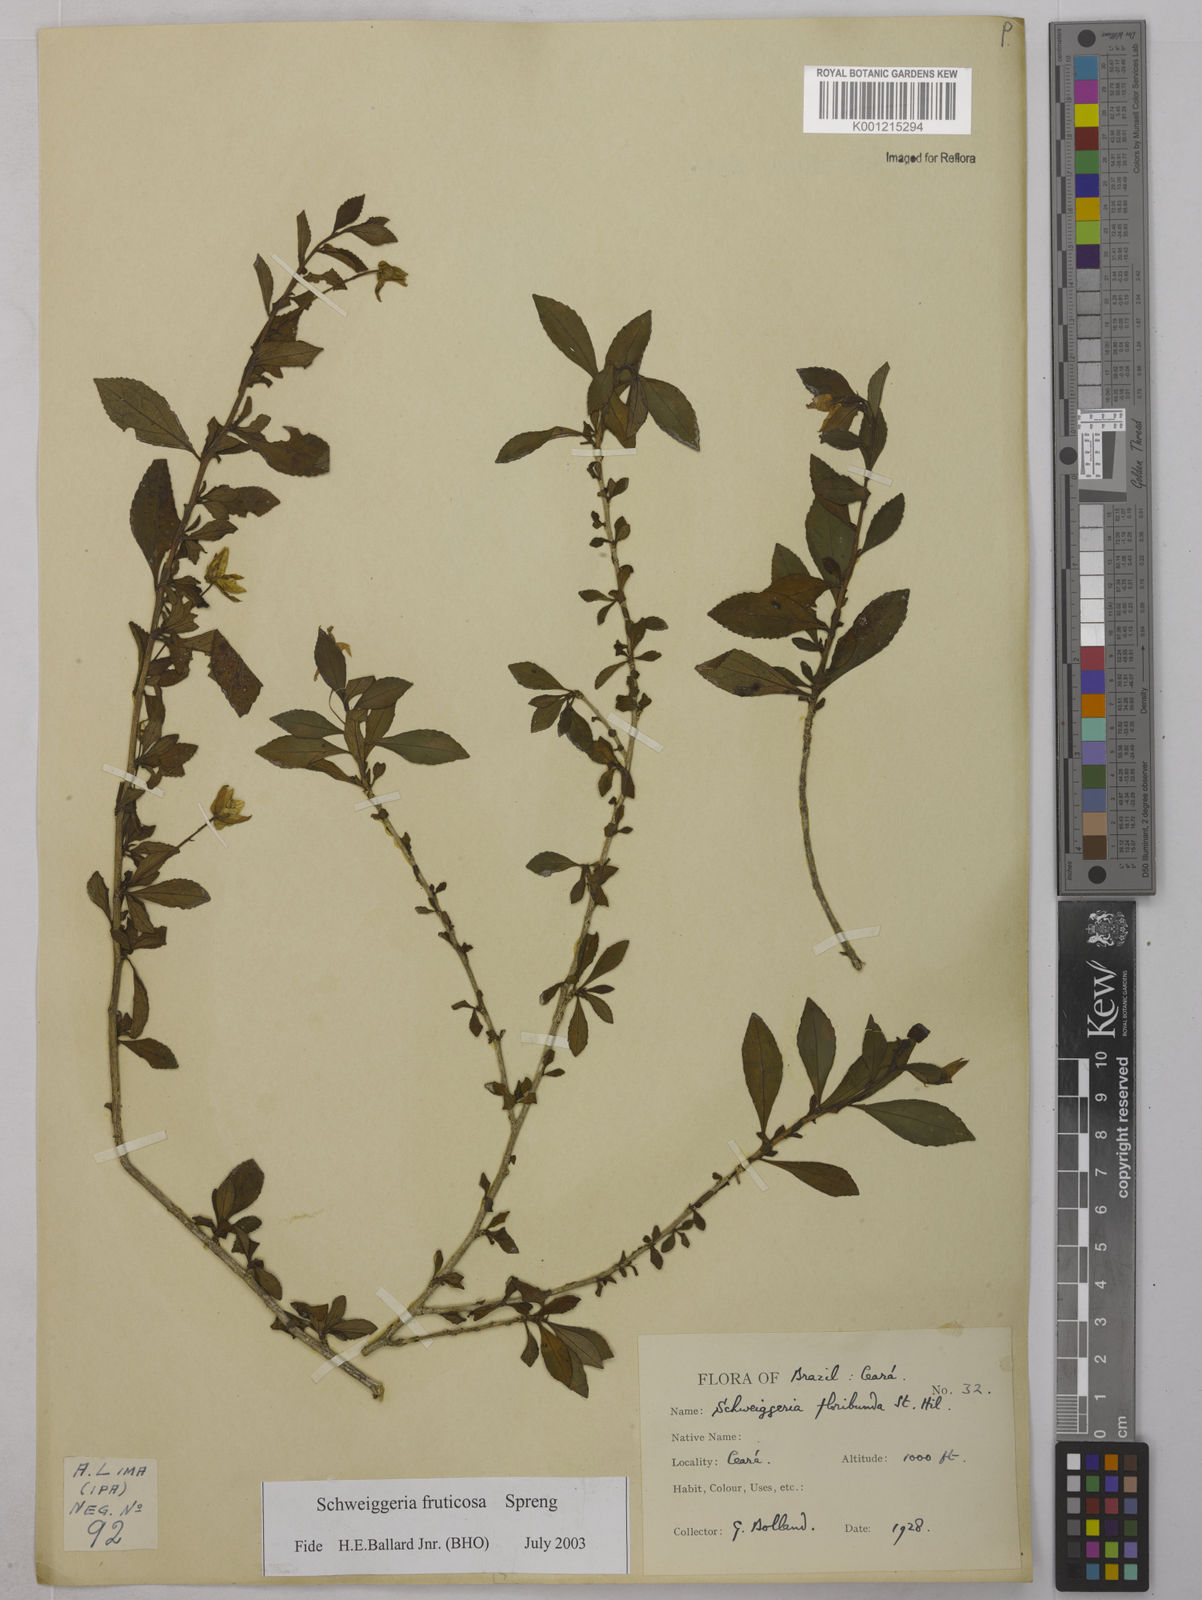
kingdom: Plantae
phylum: Tracheophyta
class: Magnoliopsida
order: Malpighiales
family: Violaceae
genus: Schweiggeria
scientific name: Schweiggeria fruticosa
